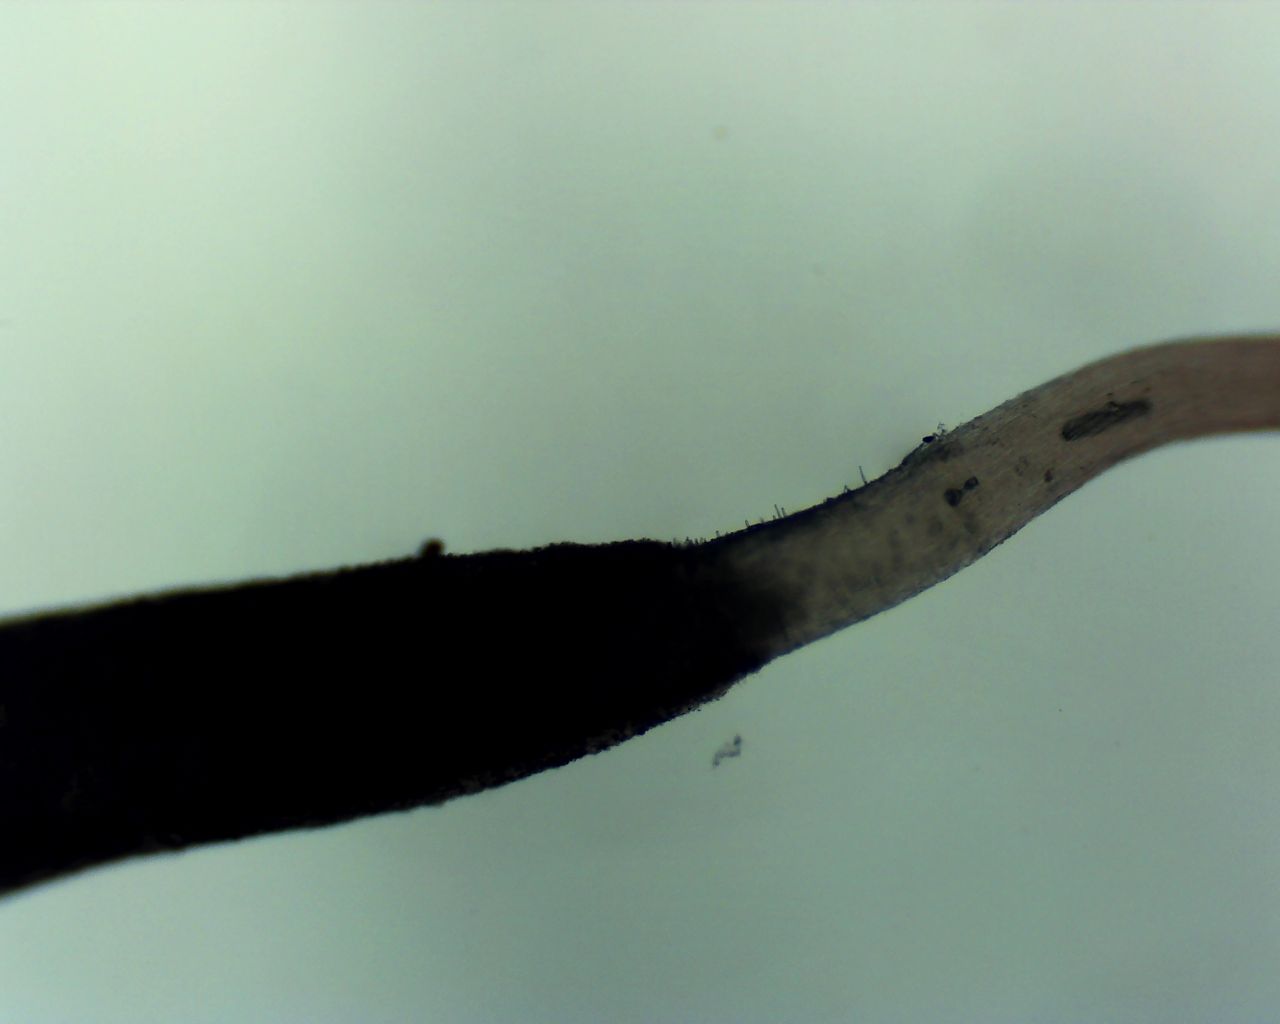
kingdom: Fungi
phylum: Basidiomycota
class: Agaricomycetes
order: Agaricales
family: Typhulaceae
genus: Typhula
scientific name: Typhula erythropus
